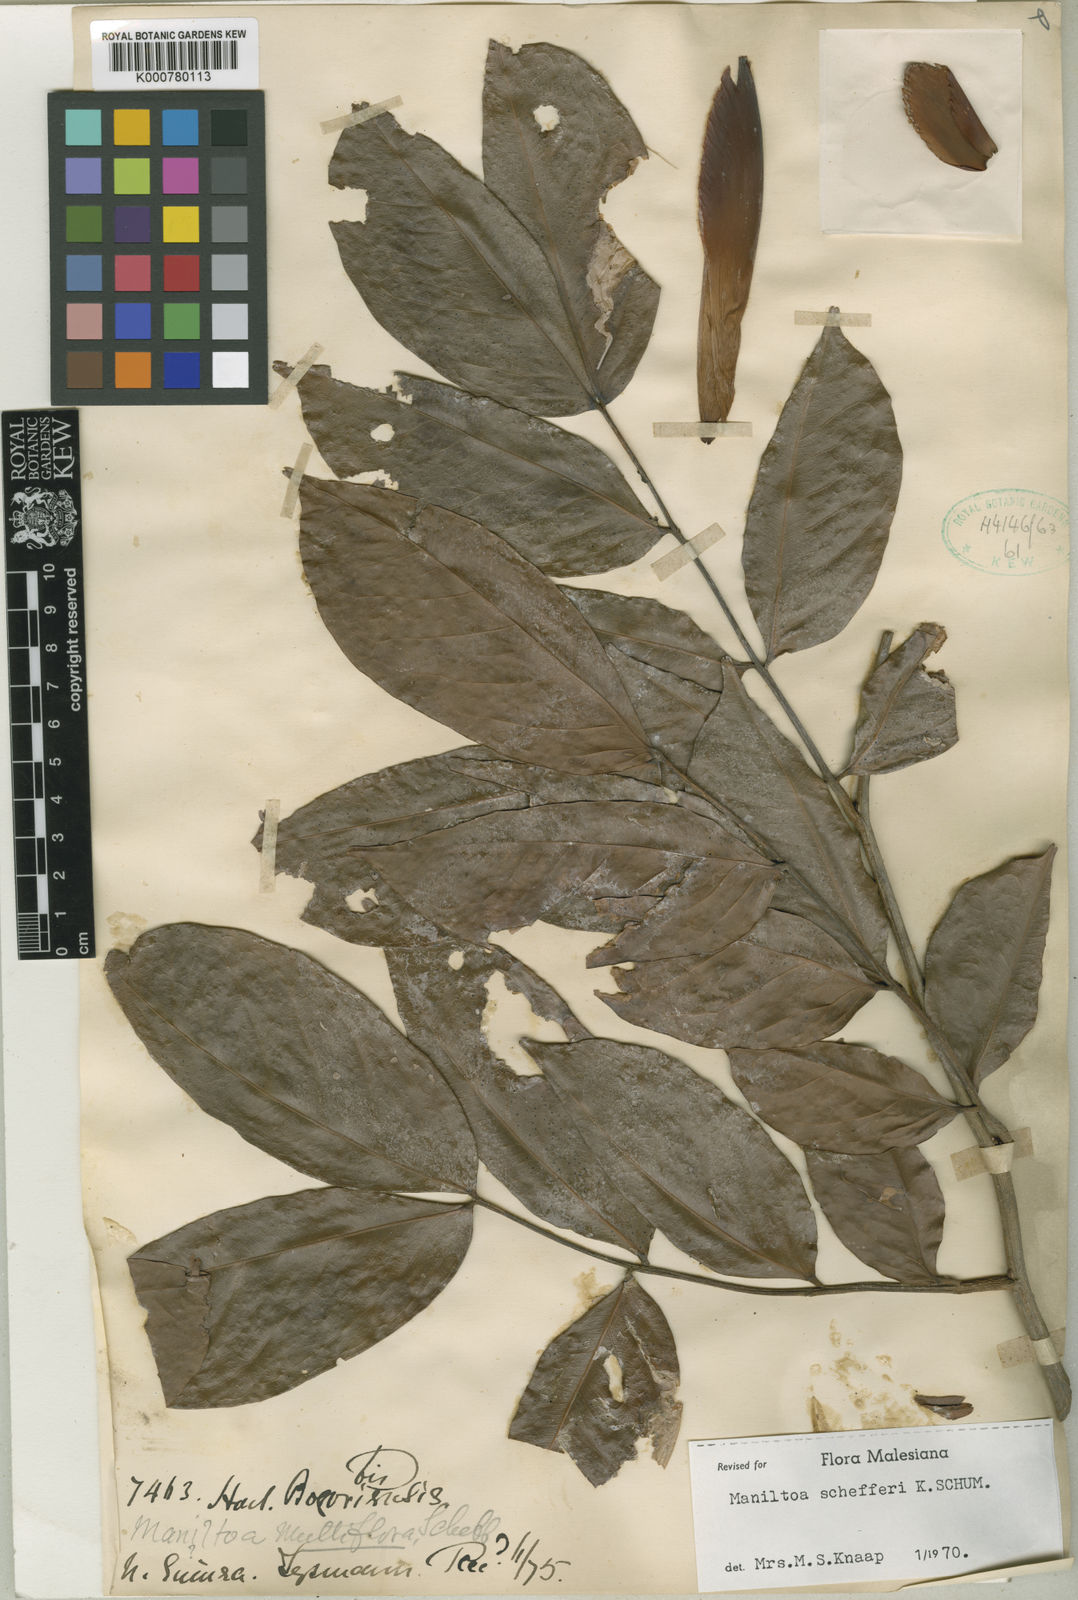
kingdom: Plantae
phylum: Tracheophyta
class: Magnoliopsida
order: Fabales
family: Fabaceae
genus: Cynometra
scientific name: Cynometra schefferi
